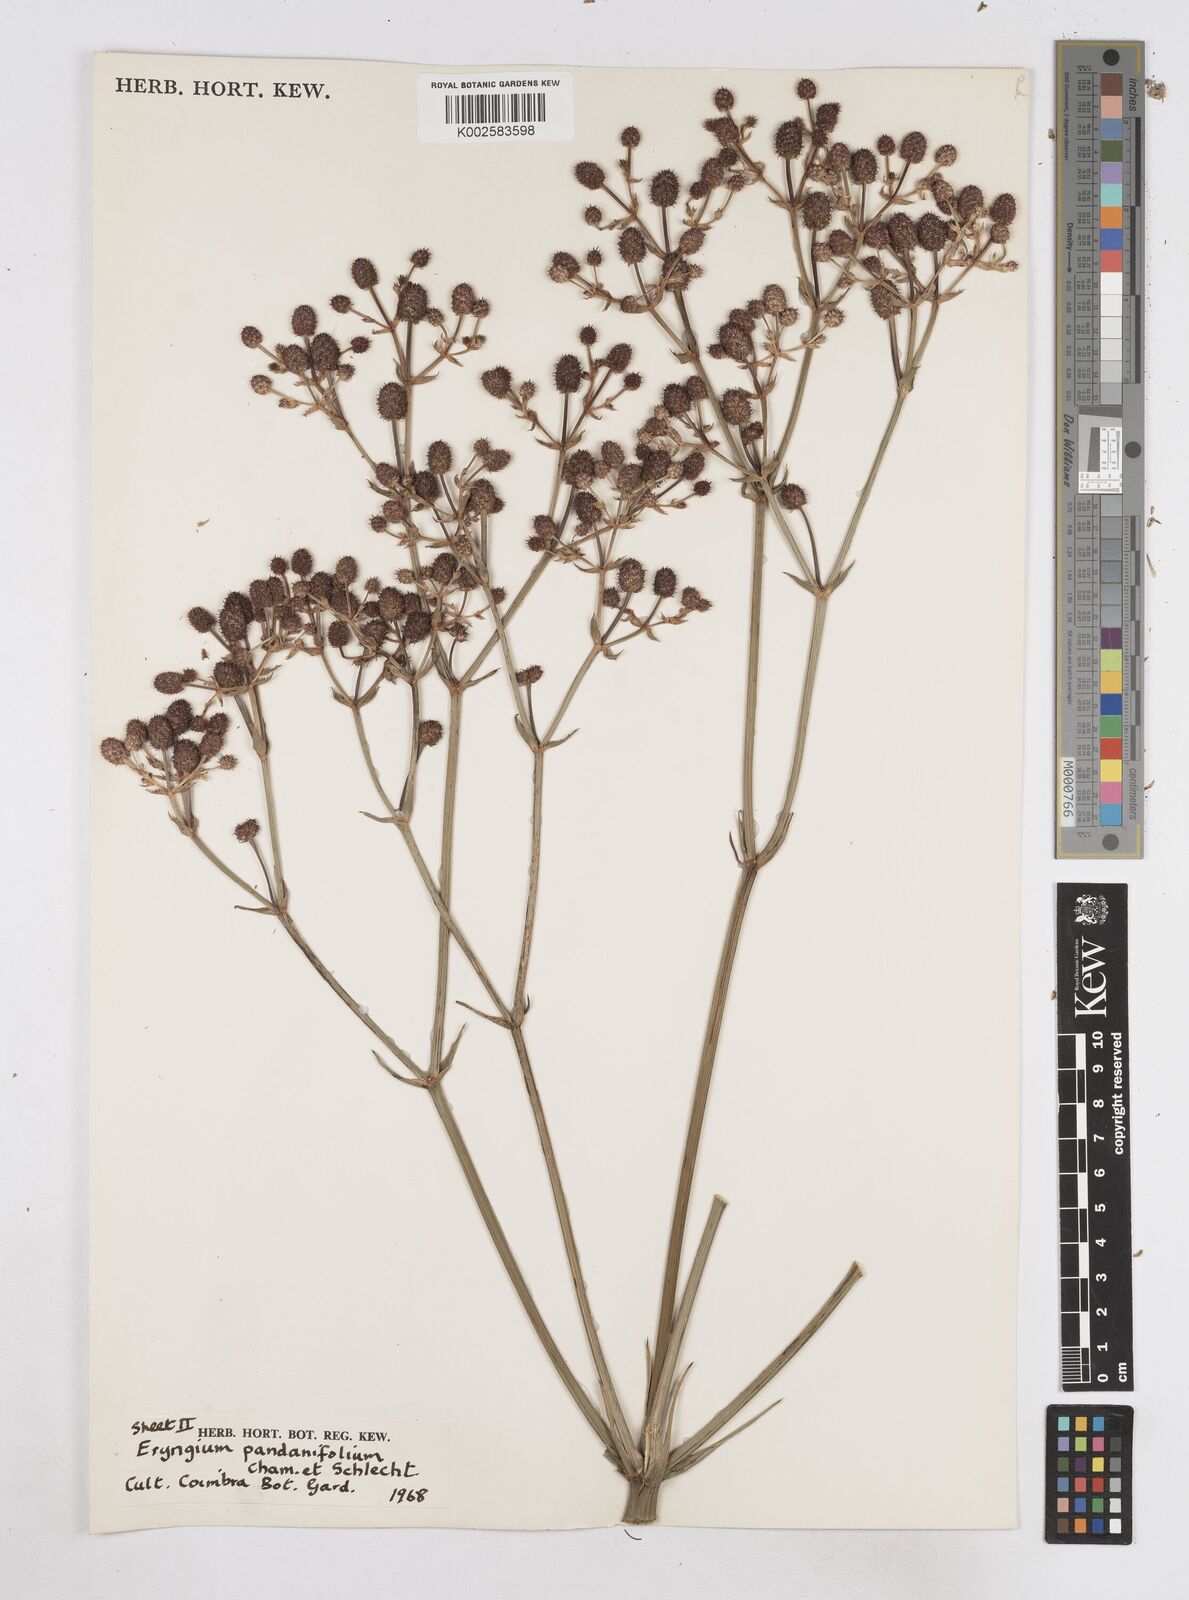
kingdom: Plantae
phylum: Tracheophyta
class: Magnoliopsida
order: Apiales
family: Apiaceae
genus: Eryngium
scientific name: Eryngium pandanifolium
